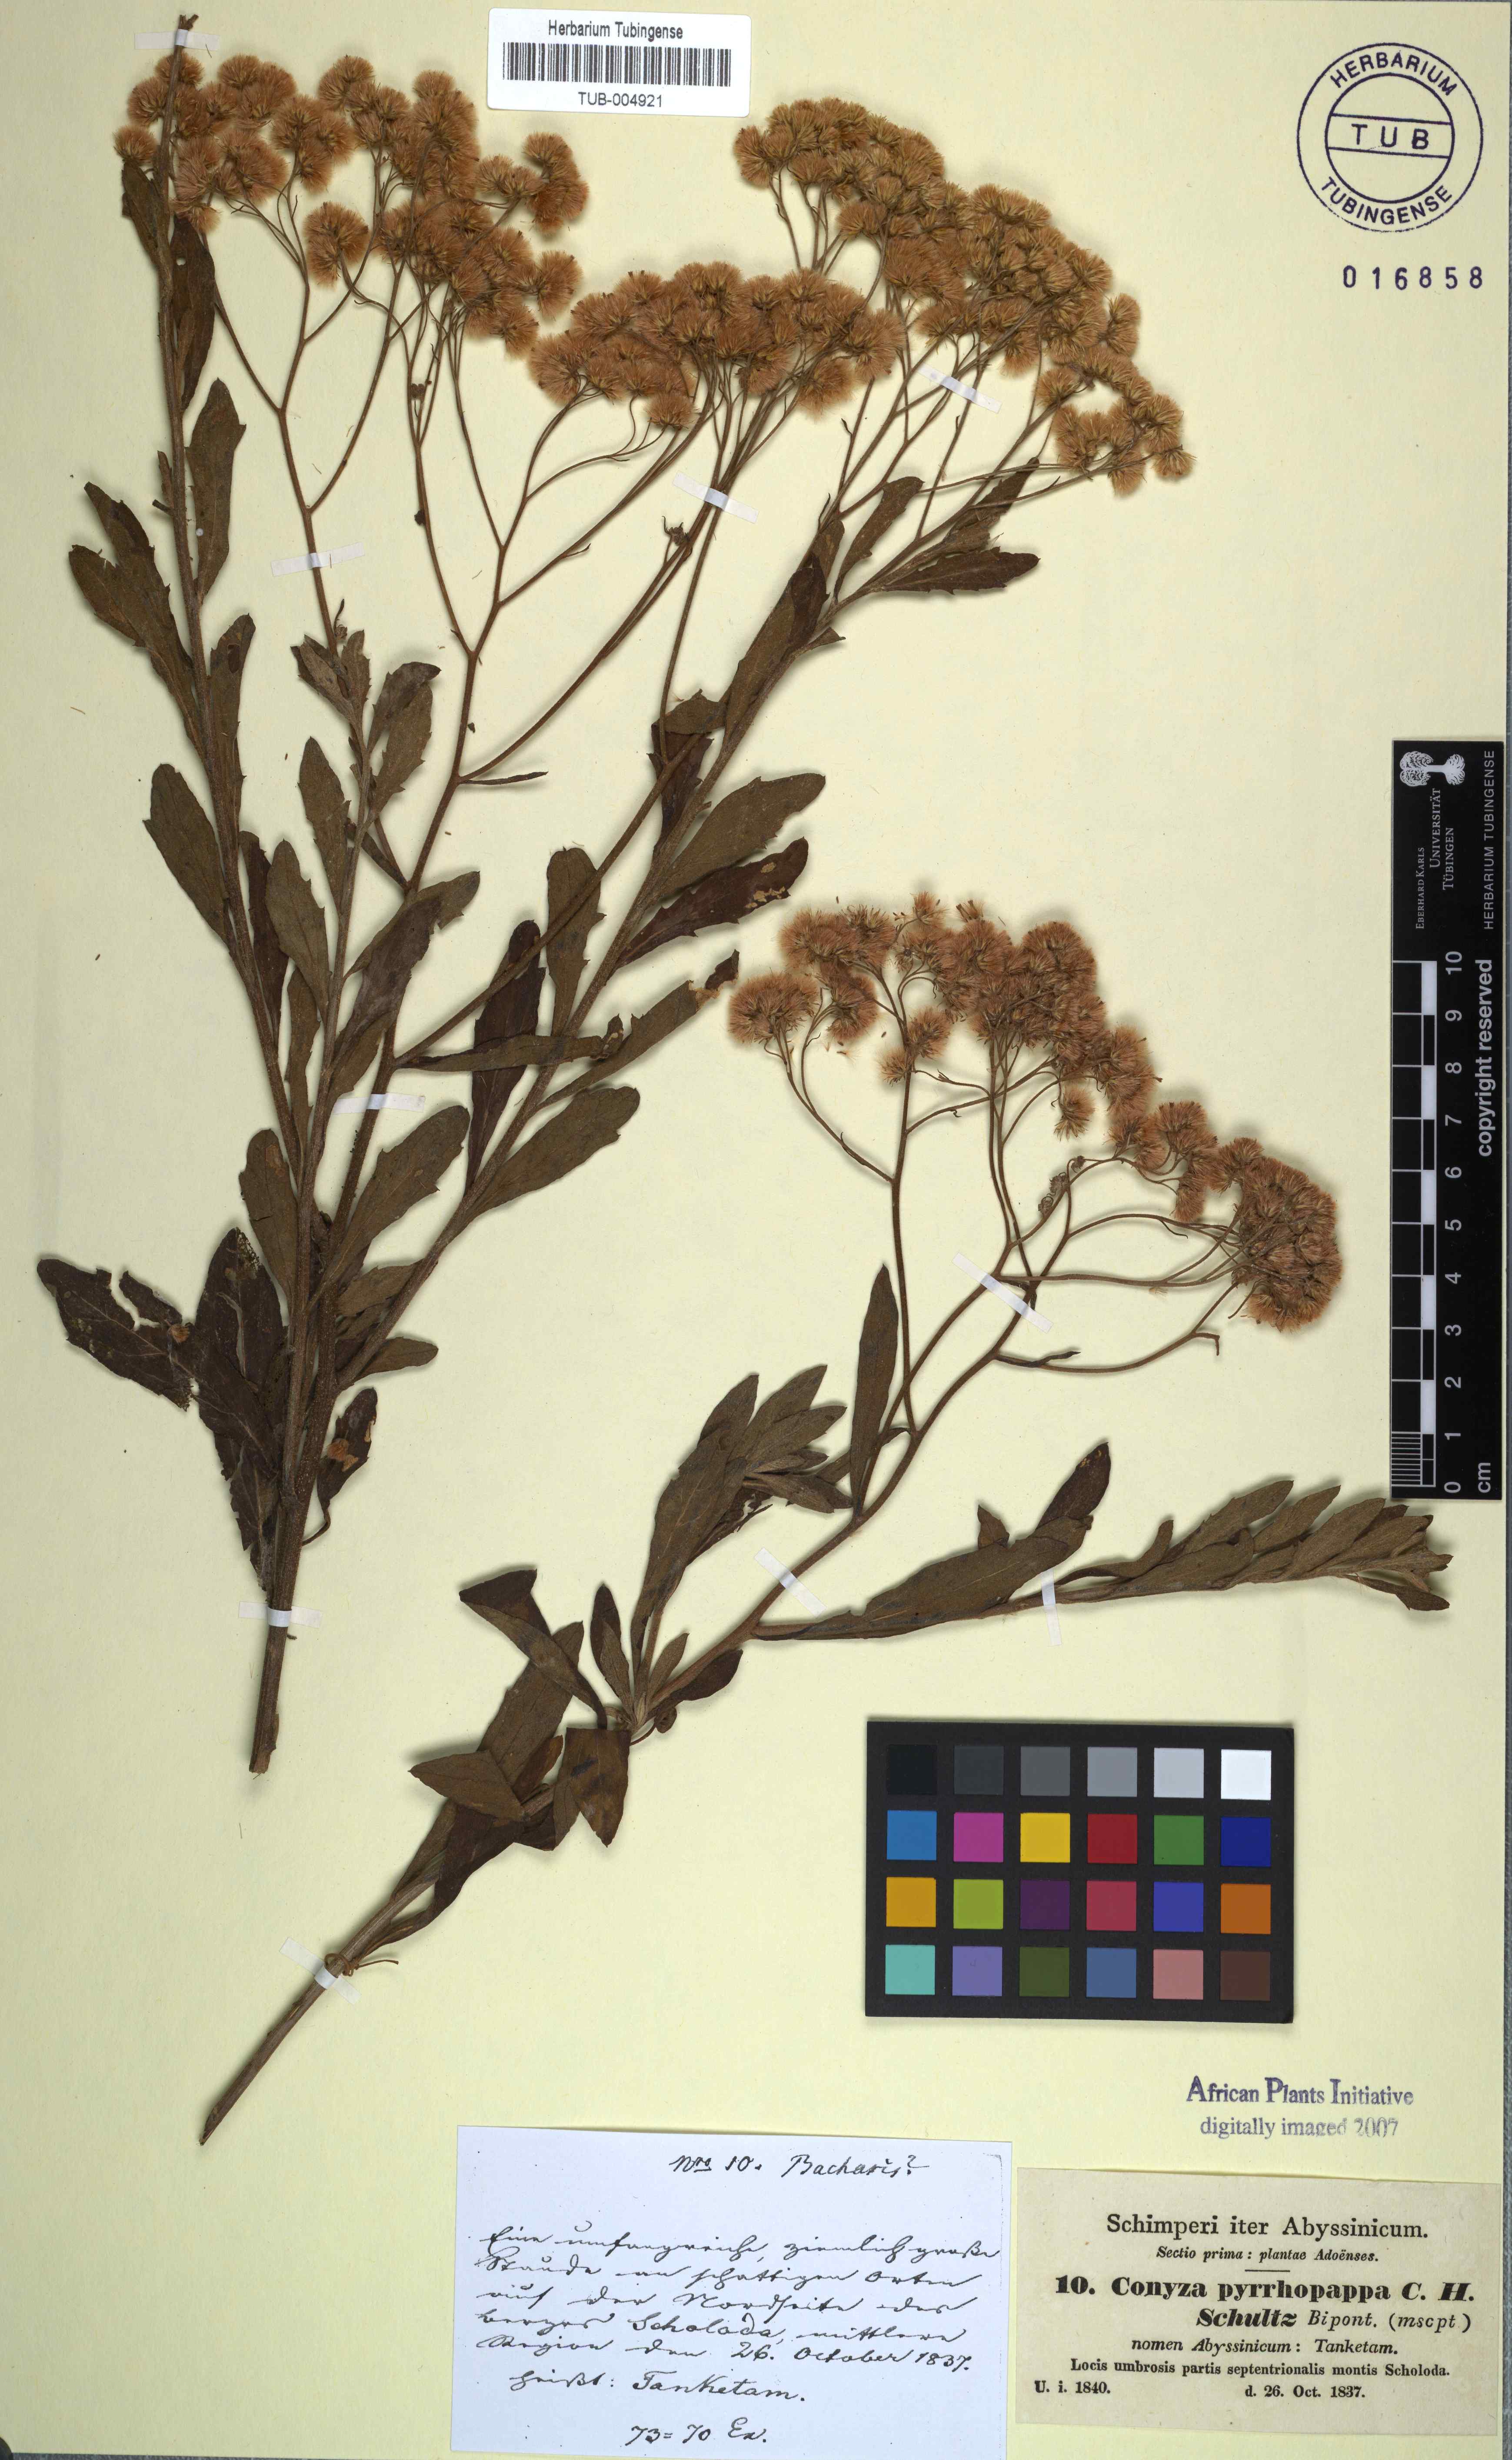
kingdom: Plantae
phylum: Tracheophyta
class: Magnoliopsida
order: Asterales
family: Asteraceae
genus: Microglossa
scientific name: Microglossa pyrrhopappa
